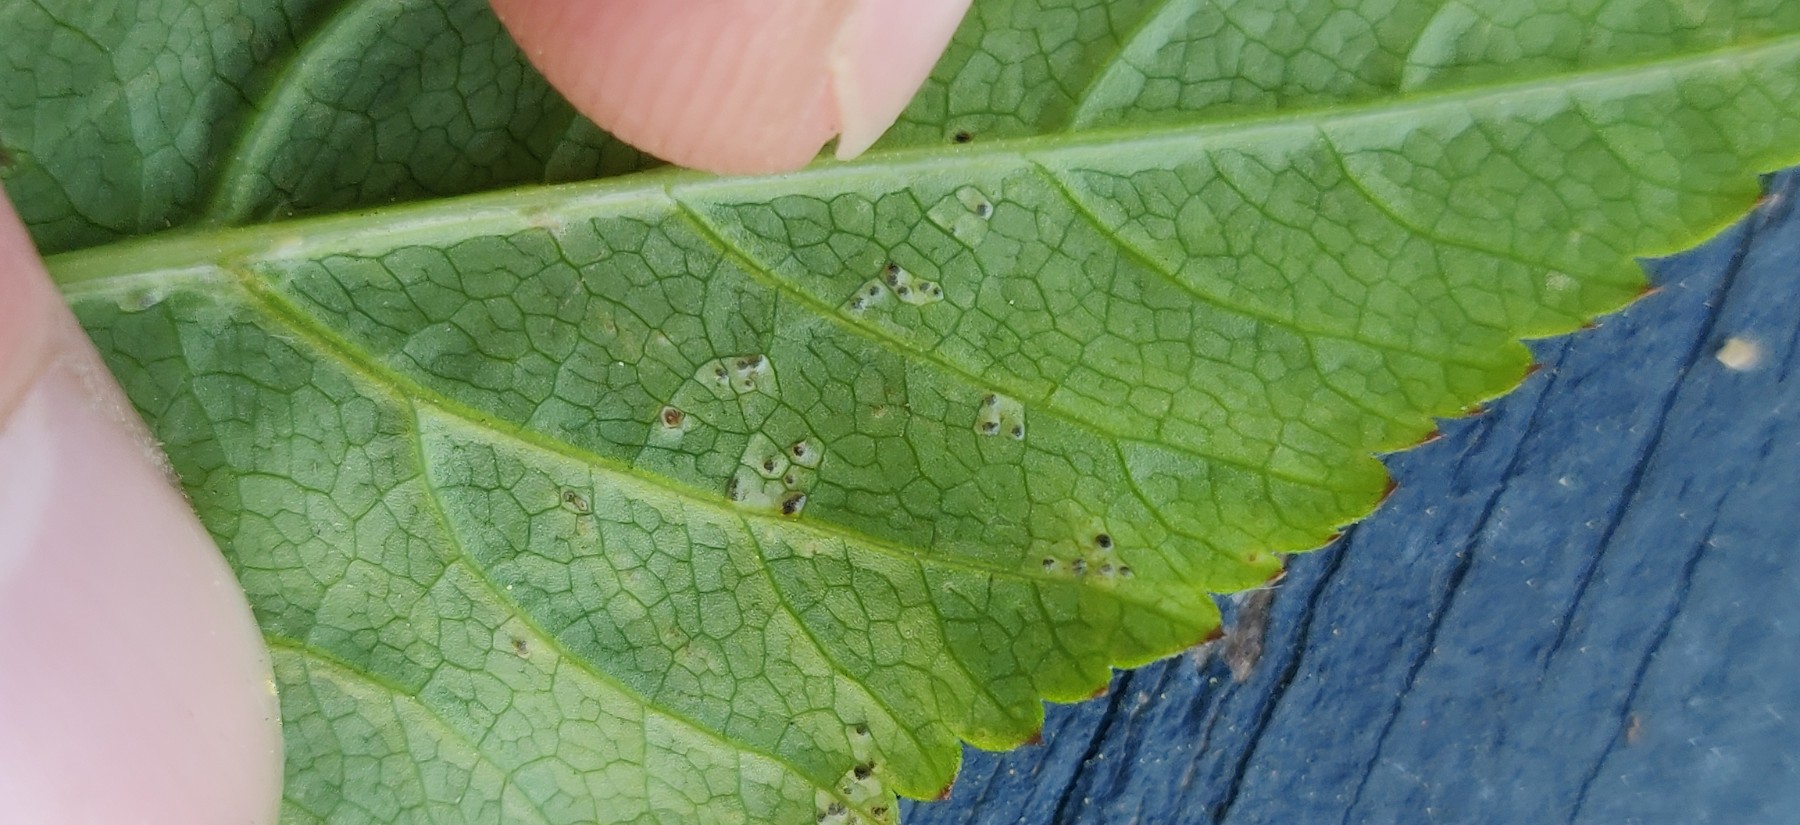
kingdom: Fungi
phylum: Ascomycota
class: Dothideomycetes
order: Mycosphaerellales
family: Mycosphaerellaceae
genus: Mycosphaerella
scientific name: Mycosphaerella podagrariae
